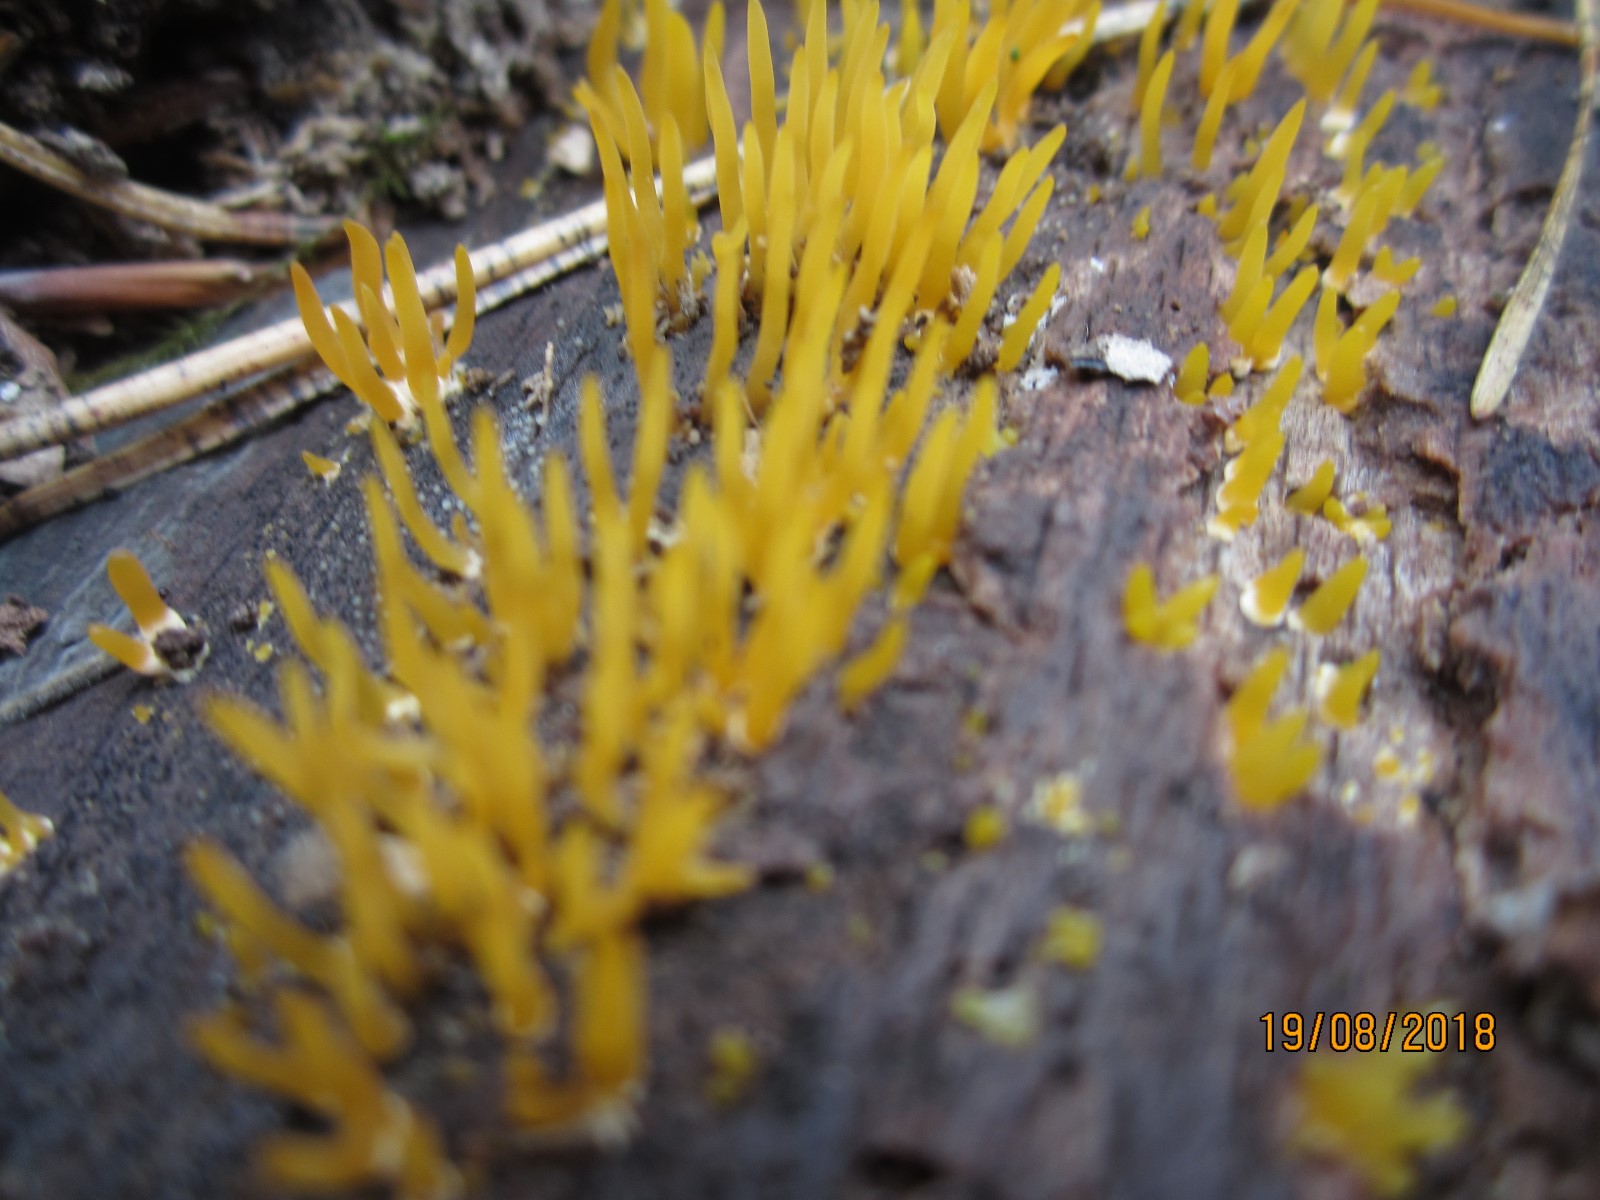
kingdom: Fungi
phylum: Basidiomycota
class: Dacrymycetes
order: Dacrymycetales
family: Dacrymycetaceae
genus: Calocera
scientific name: Calocera cornea
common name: liden guldgaffel
